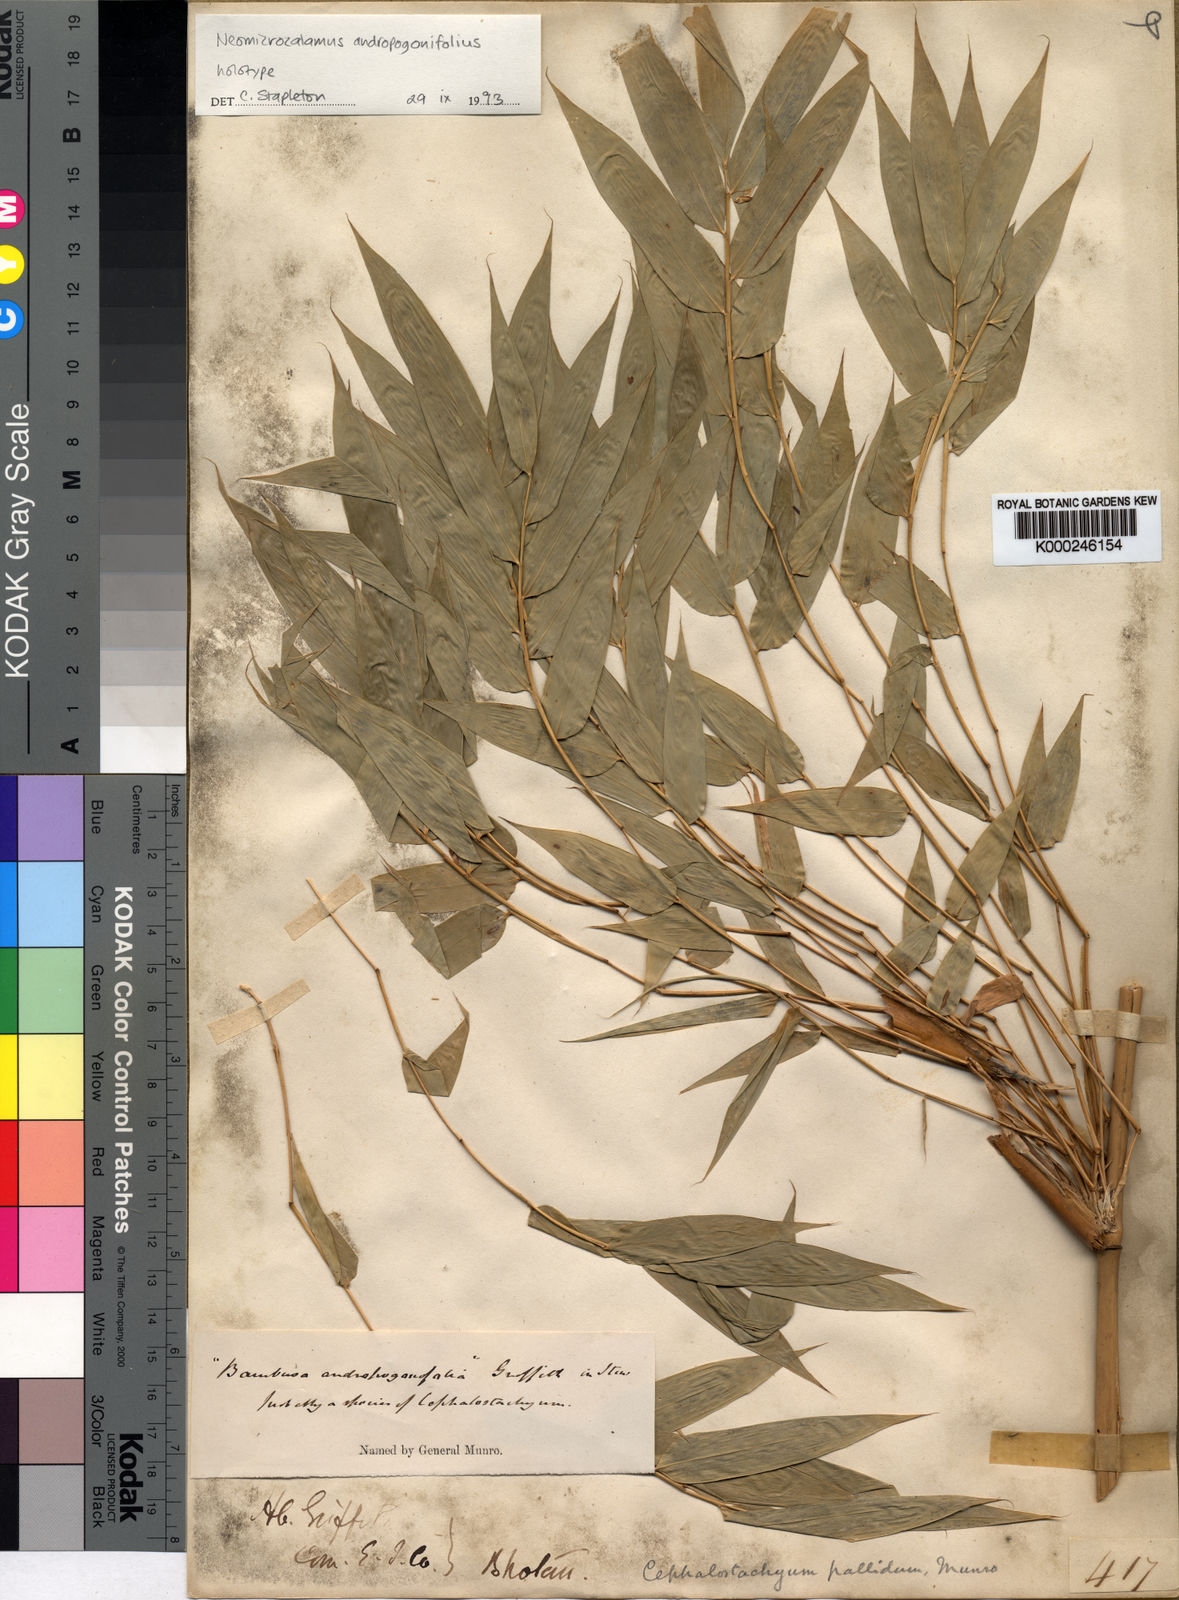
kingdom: Plantae
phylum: Tracheophyta
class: Liliopsida
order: Poales
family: Poaceae
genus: Neomicrocalamus
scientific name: Neomicrocalamus andropogonifolius
